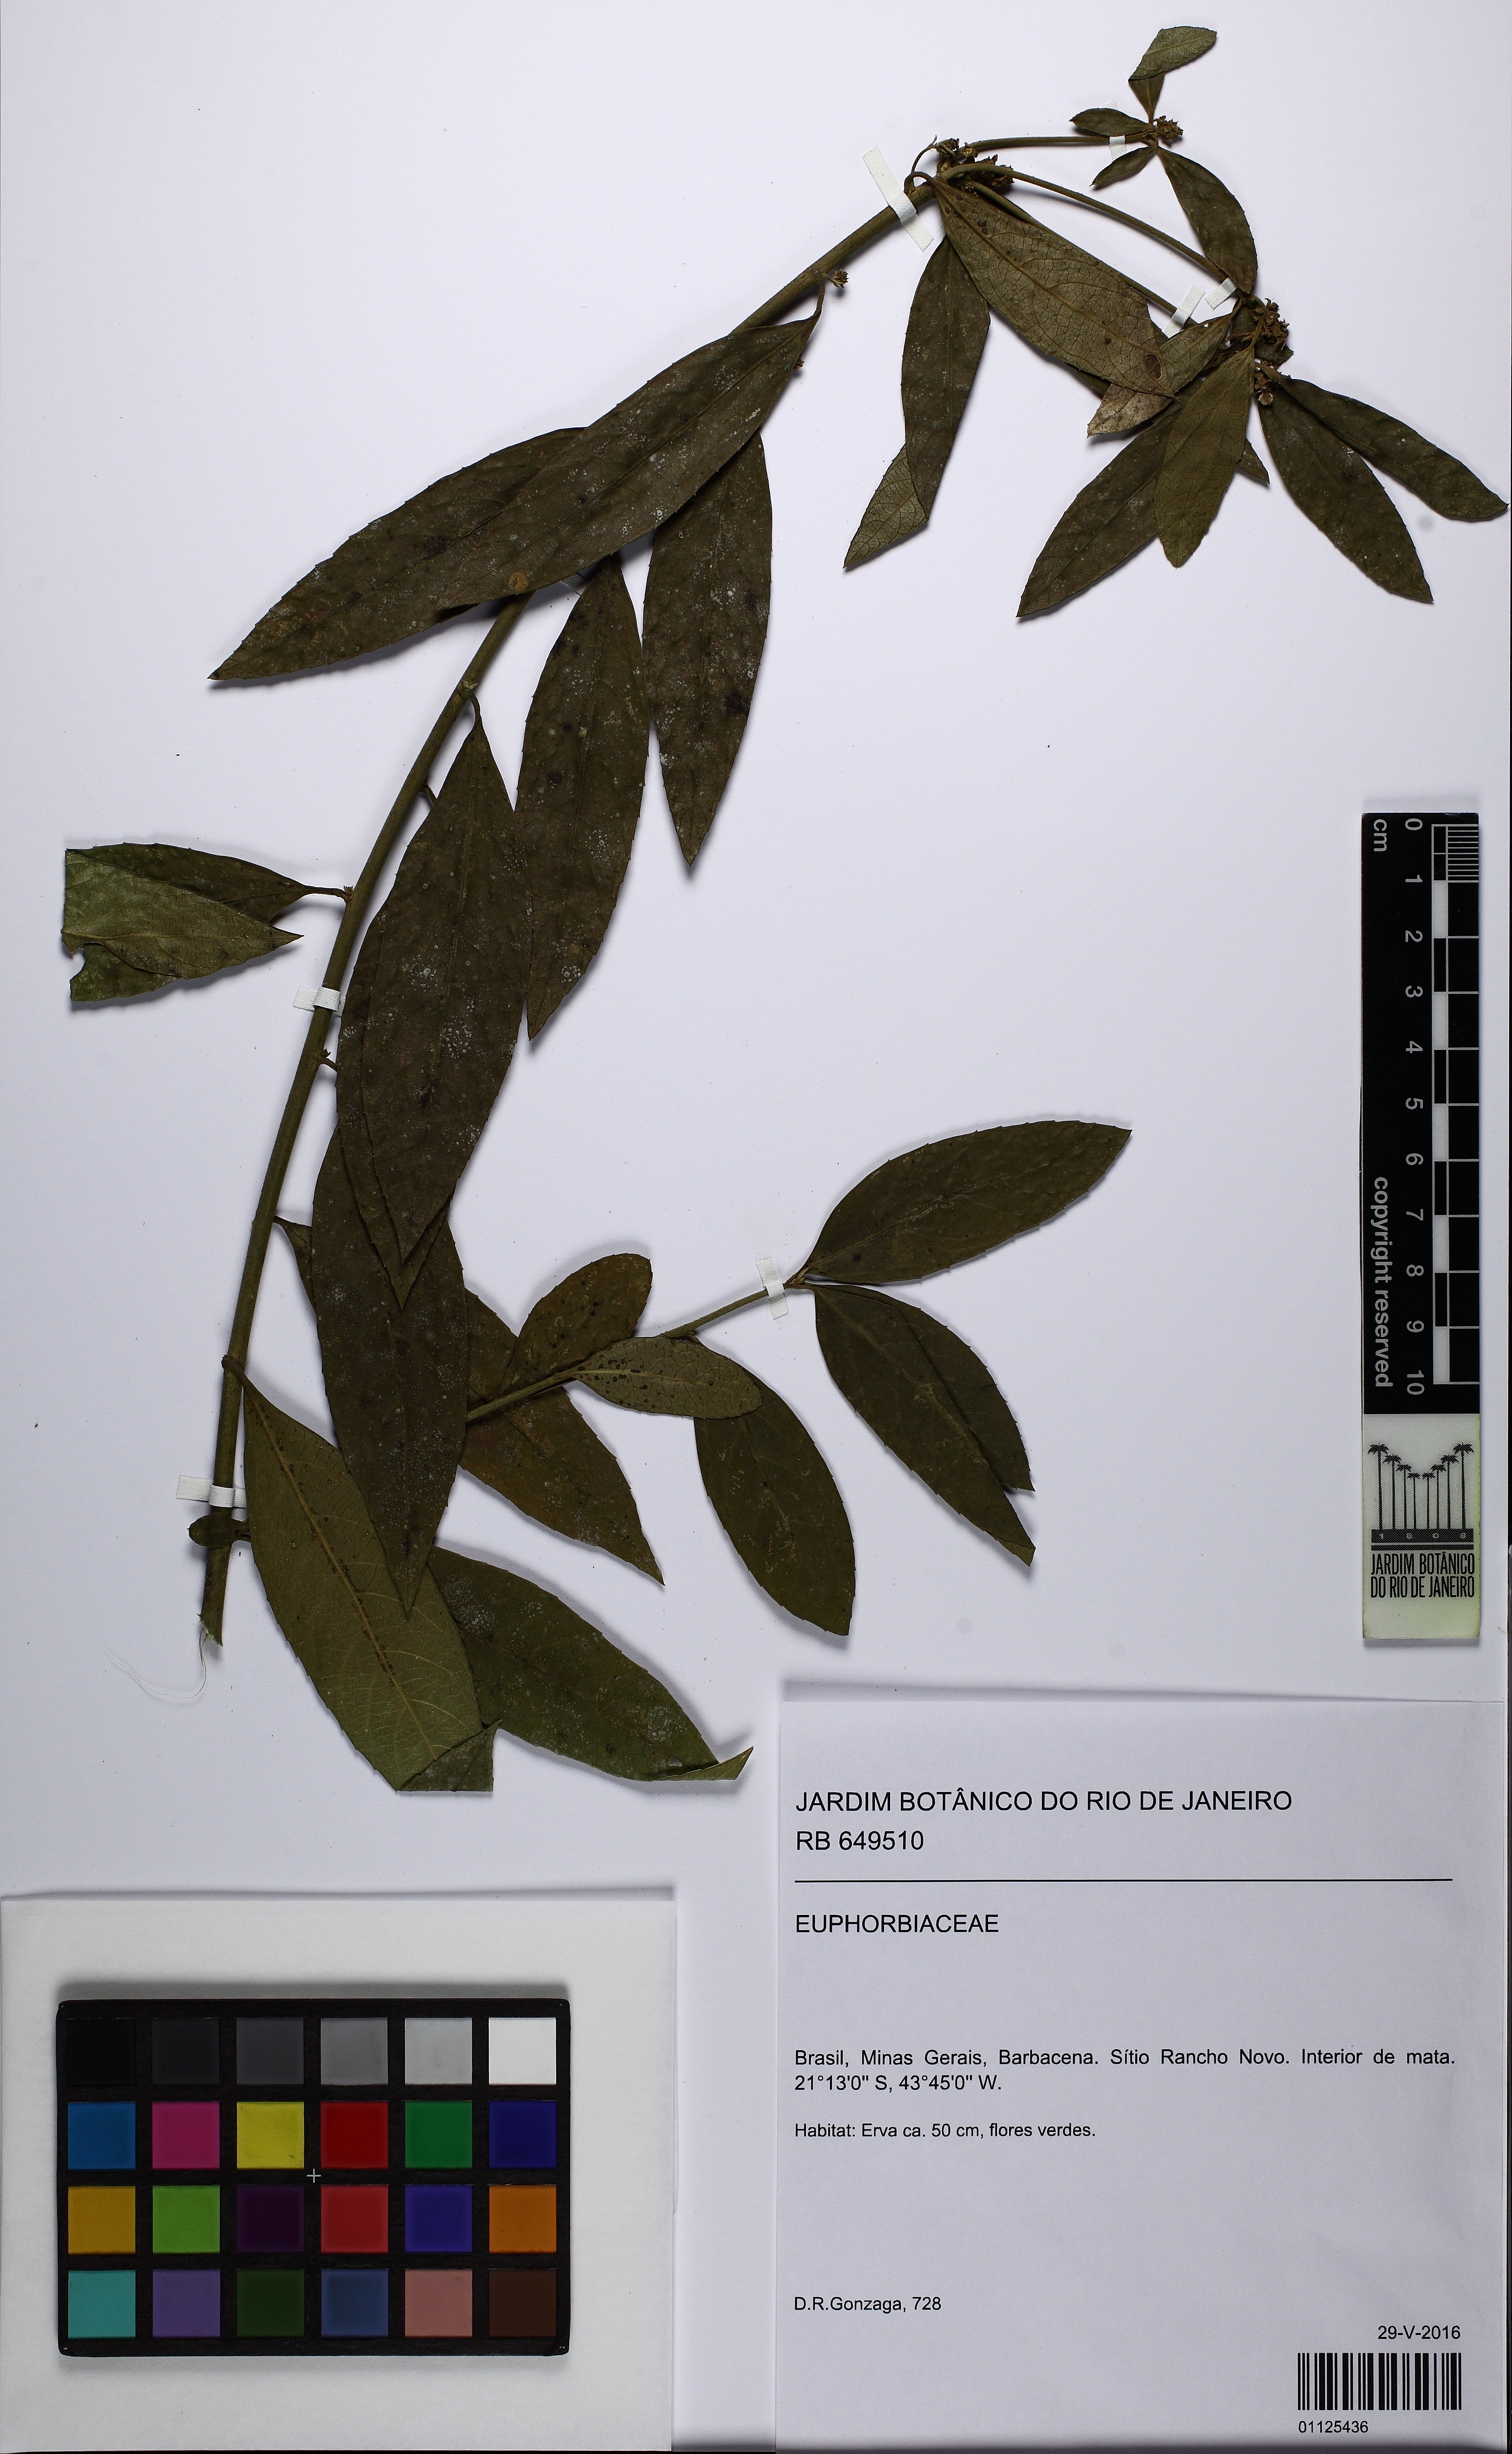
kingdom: Plantae
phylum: Tracheophyta
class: Magnoliopsida
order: Malpighiales
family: Euphorbiaceae
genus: Bernardia
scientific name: Bernardia pulchella
